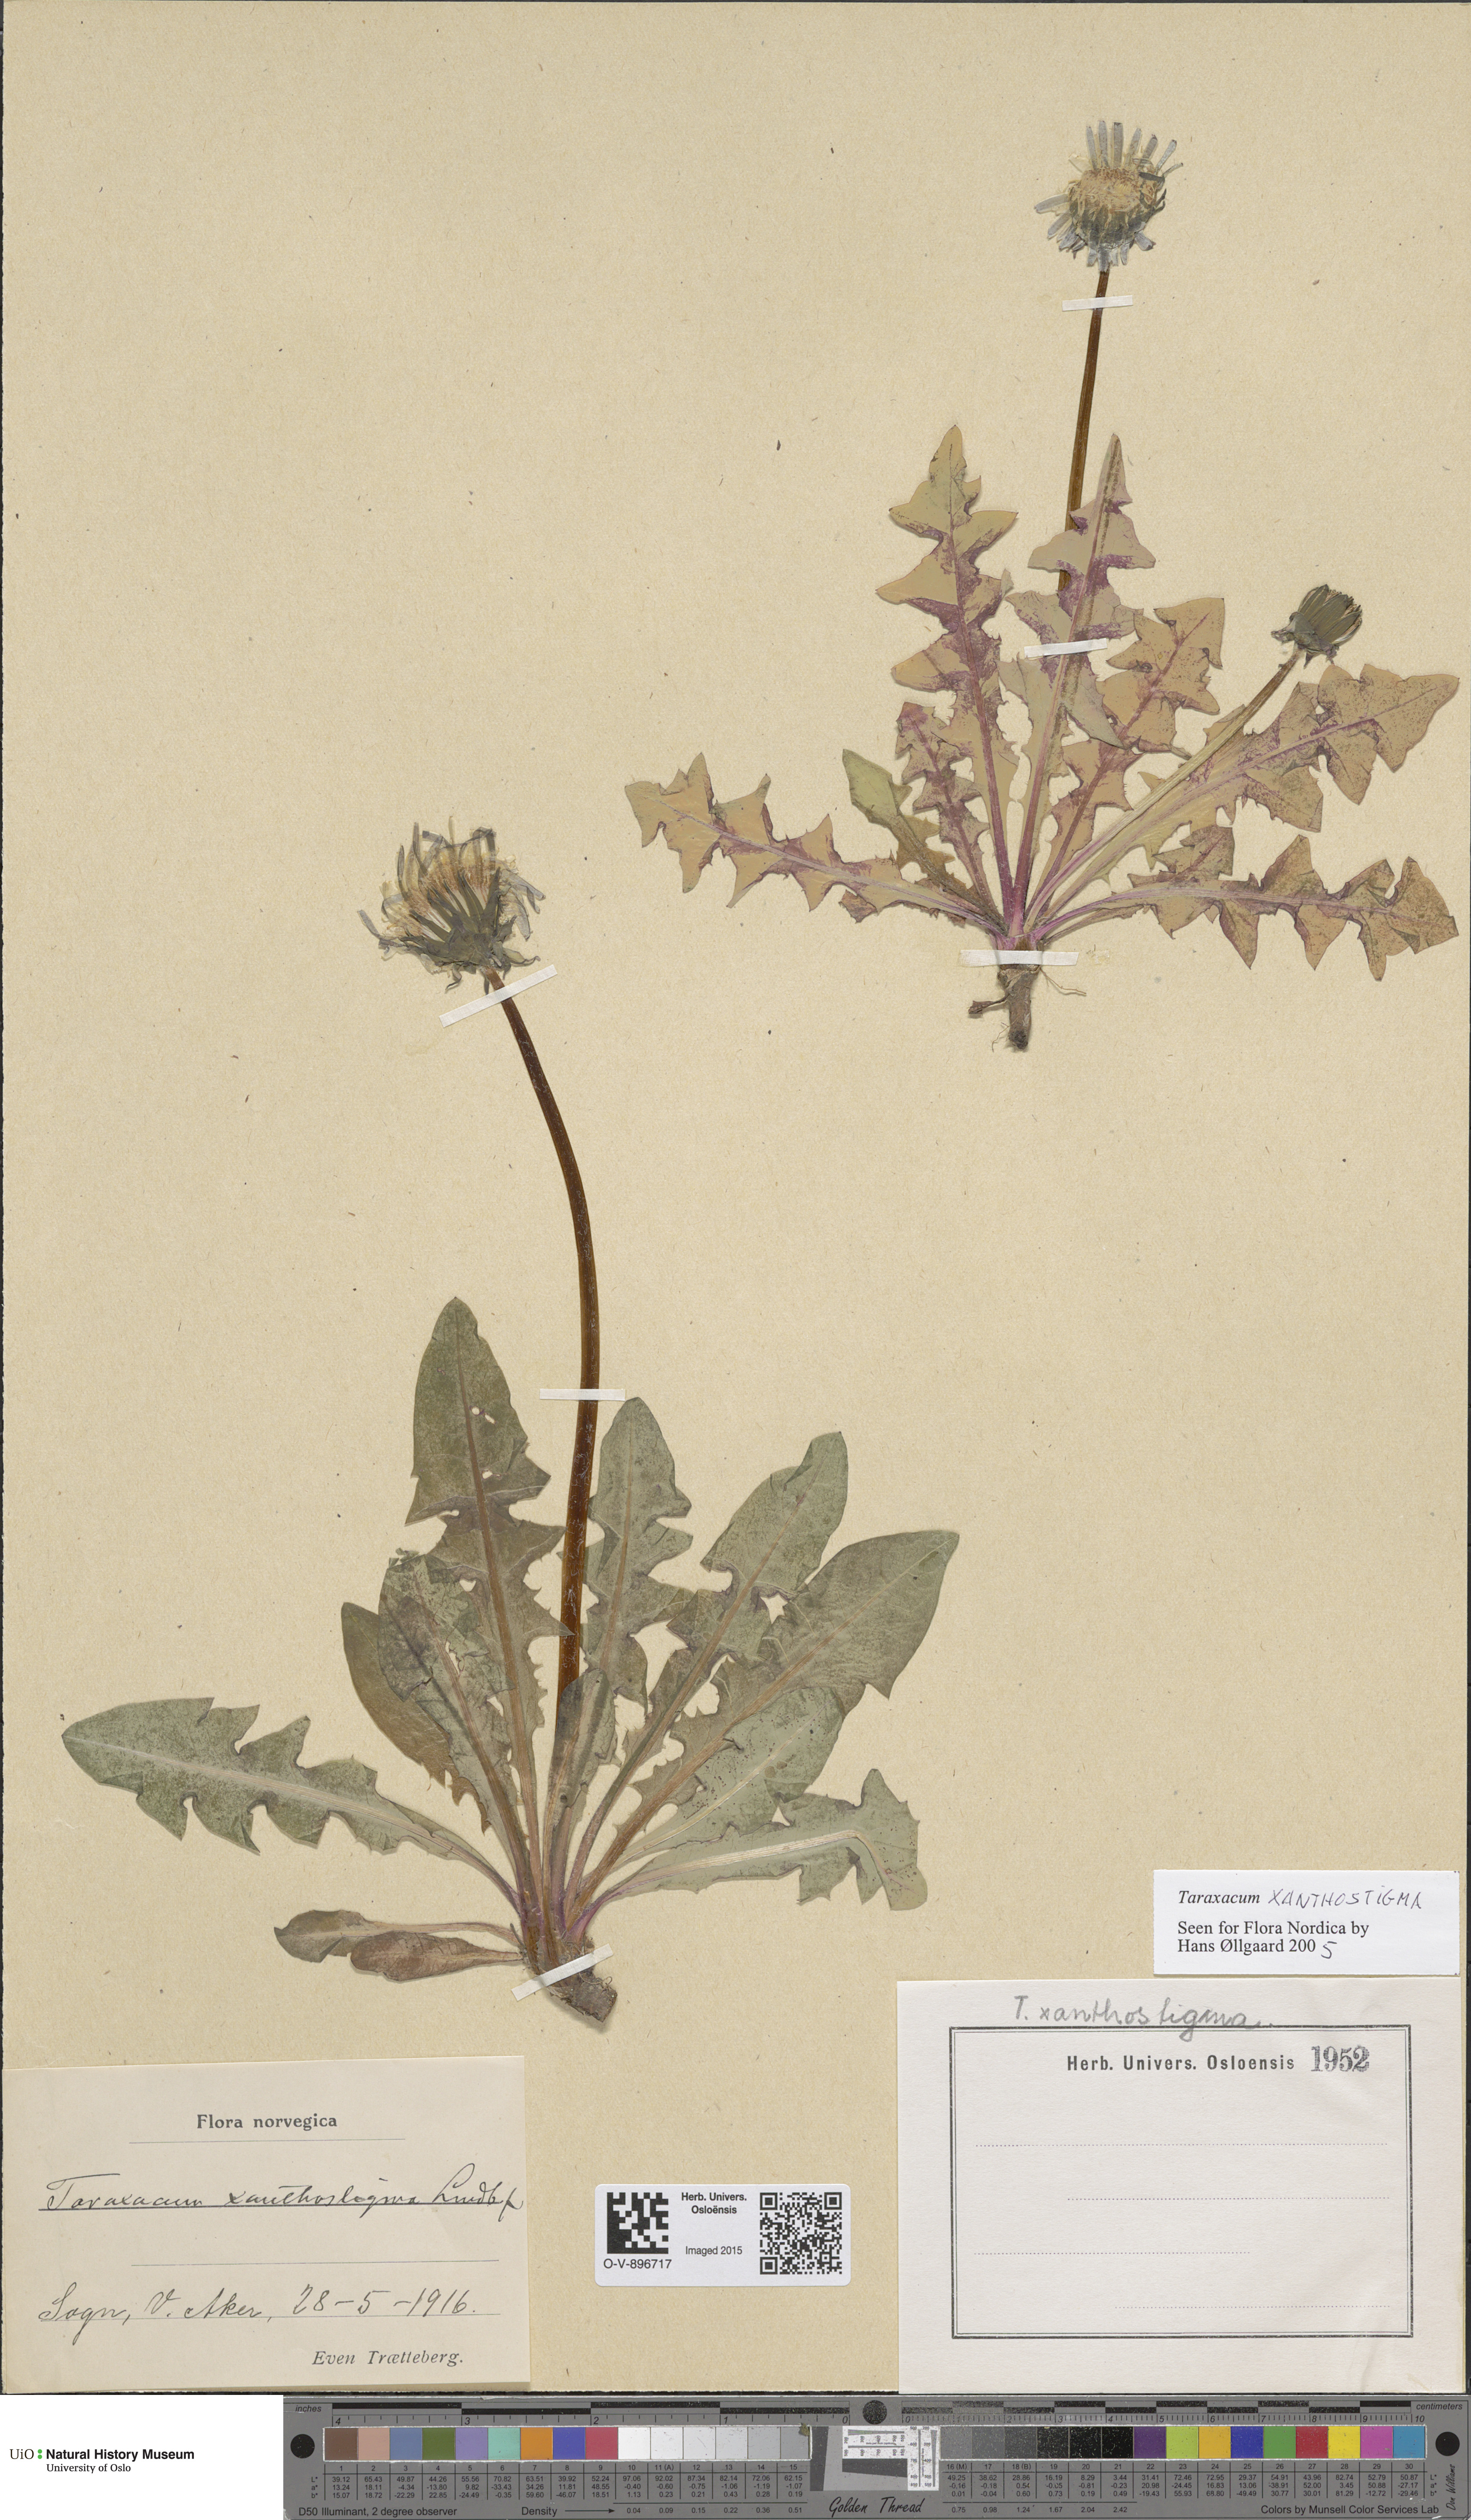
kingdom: Plantae
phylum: Tracheophyta
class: Magnoliopsida
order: Asterales
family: Asteraceae
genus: Taraxacum
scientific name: Taraxacum xanthostigma
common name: Ochre-styled dandelion
